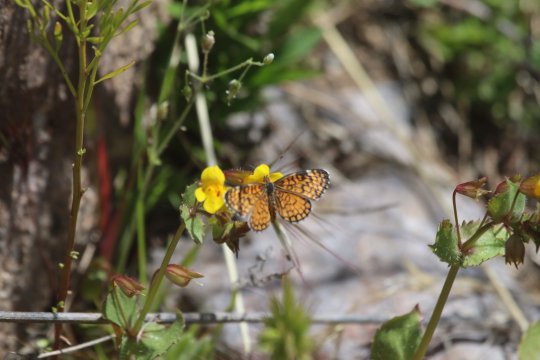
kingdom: Animalia
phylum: Arthropoda
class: Insecta
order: Lepidoptera
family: Nymphalidae
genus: Dymasia
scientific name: Dymasia dymas
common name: Tiny Checkerspot
